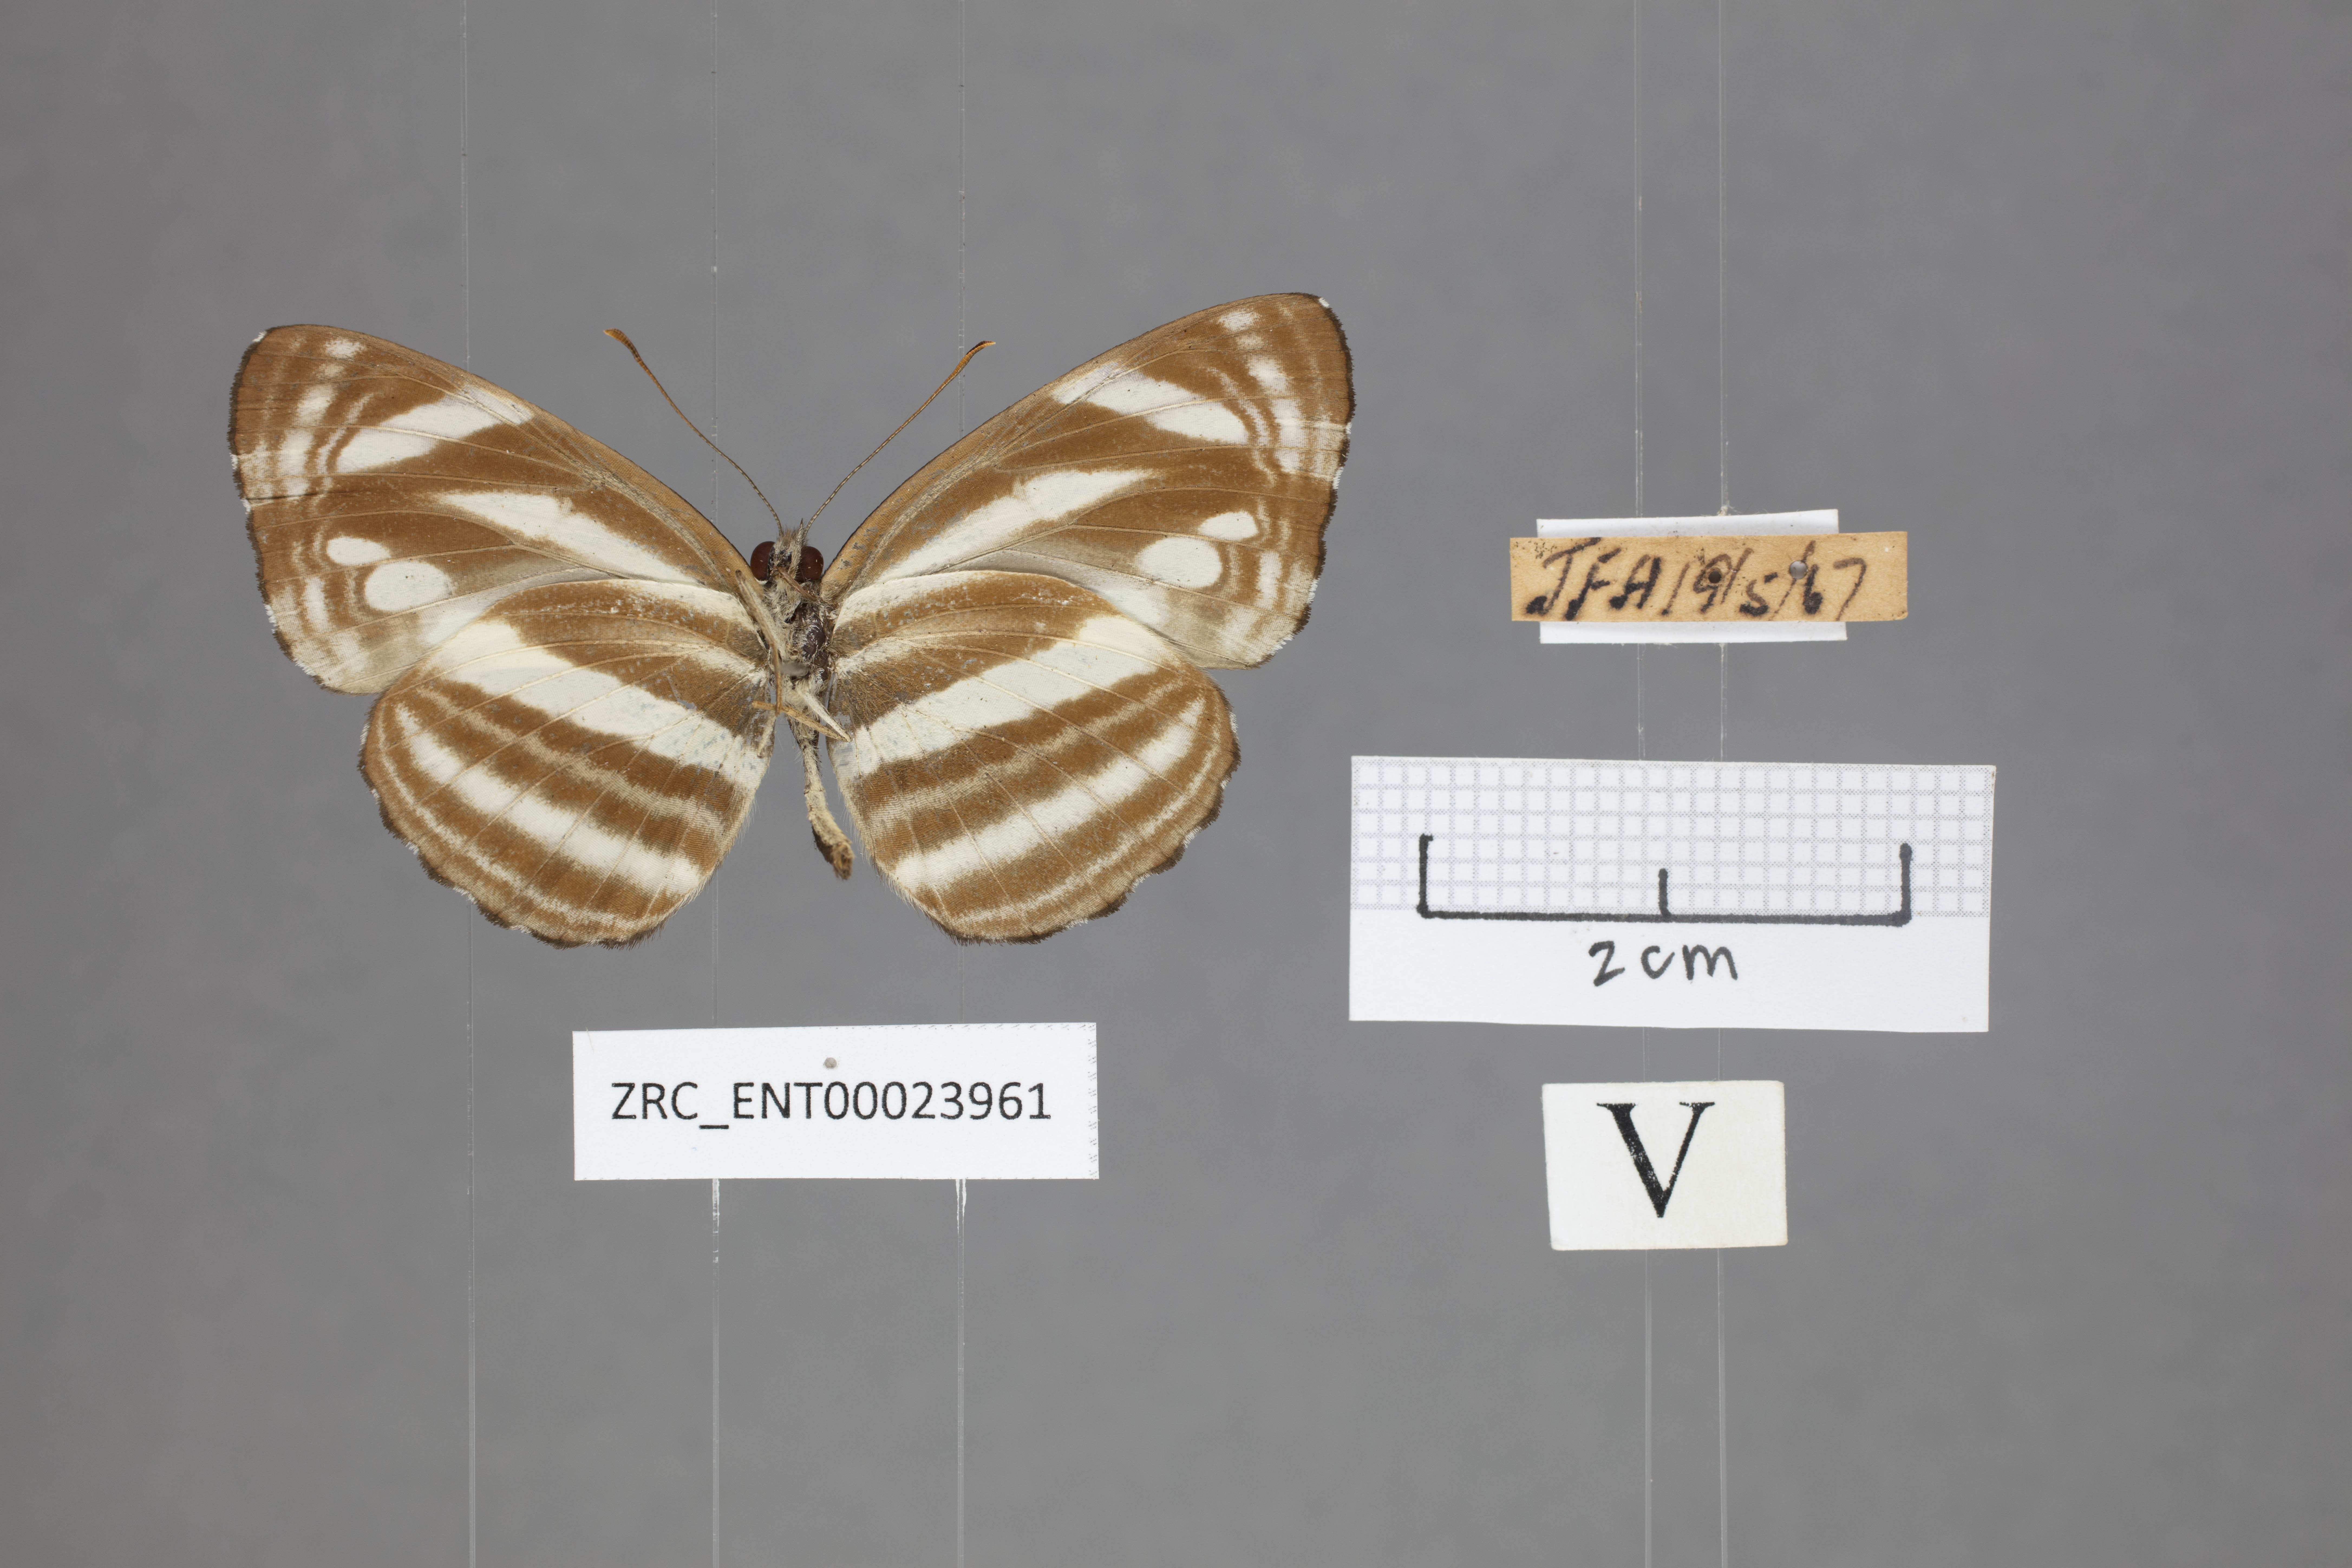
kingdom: Animalia
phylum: Arthropoda
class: Insecta
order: Lepidoptera
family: Nymphalidae
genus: Neptis
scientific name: Neptis clinioides
